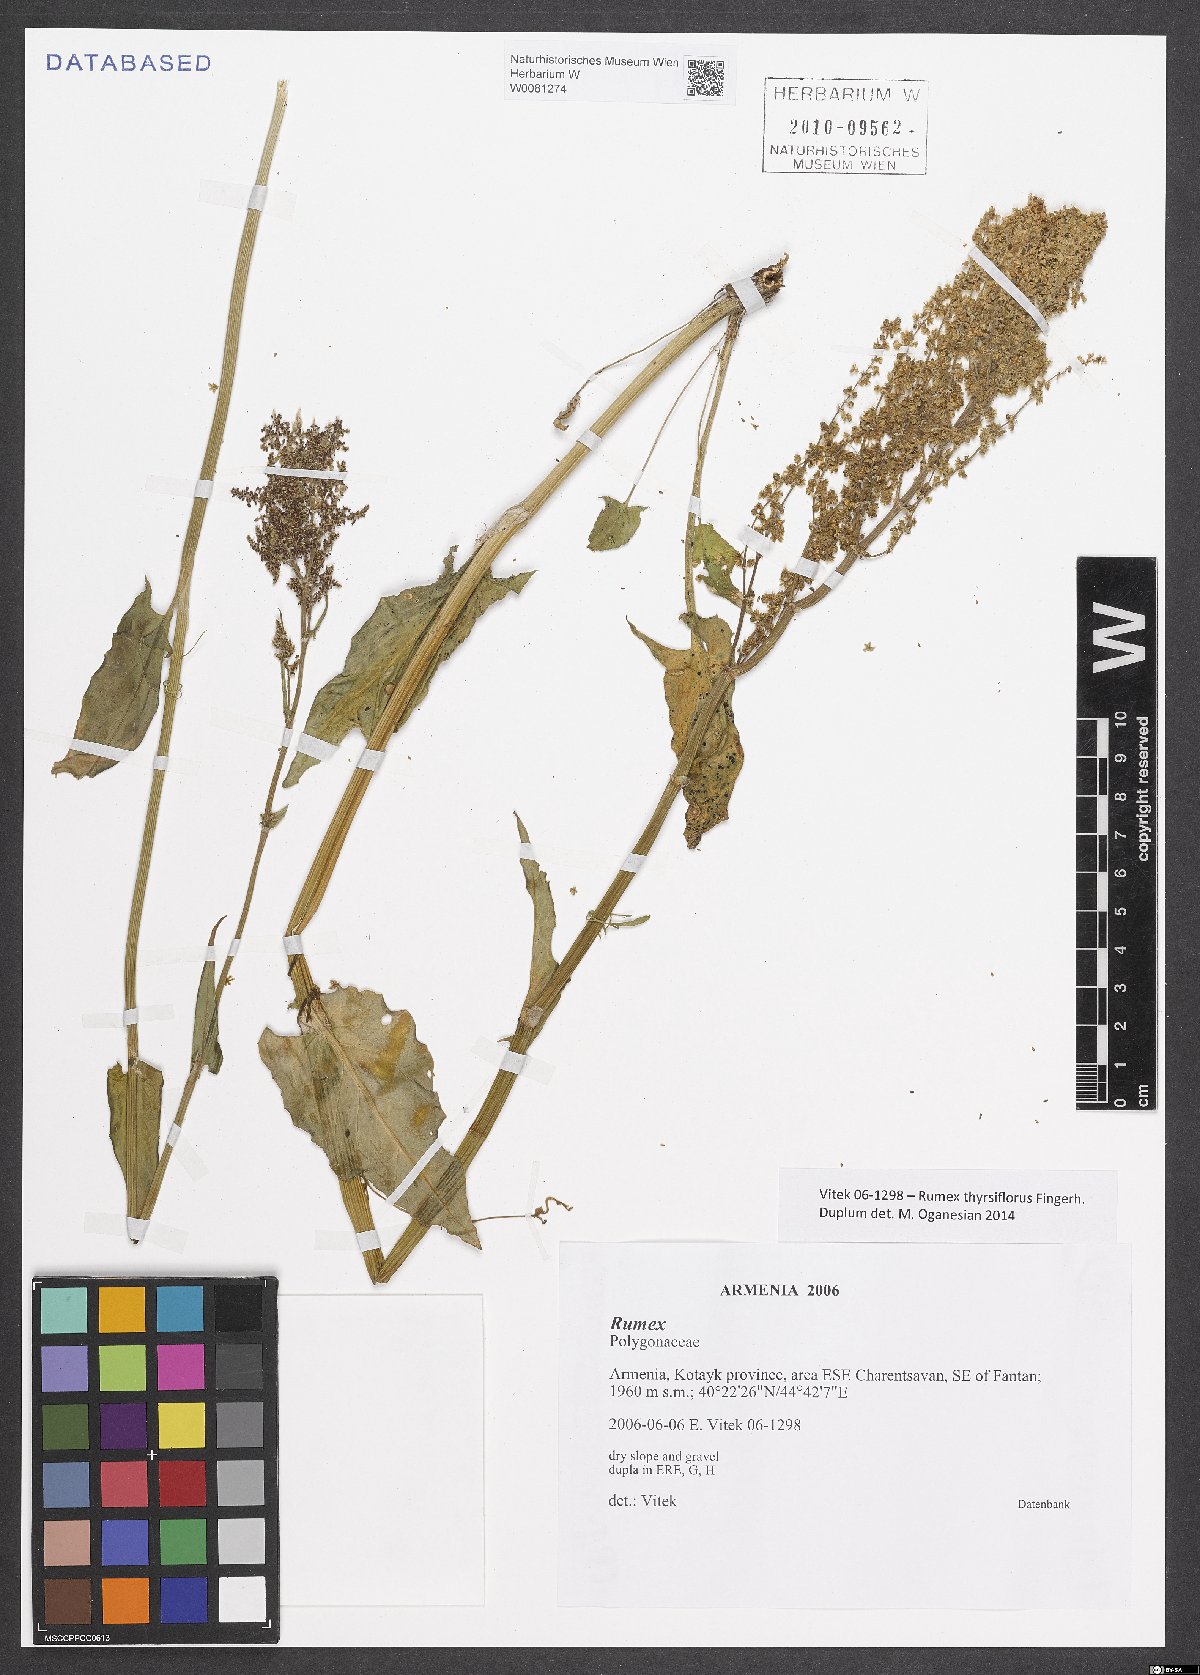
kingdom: Plantae
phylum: Tracheophyta
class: Magnoliopsida
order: Caryophyllales
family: Polygonaceae
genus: Rumex
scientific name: Rumex thyrsiflorus
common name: Garden sorrel
